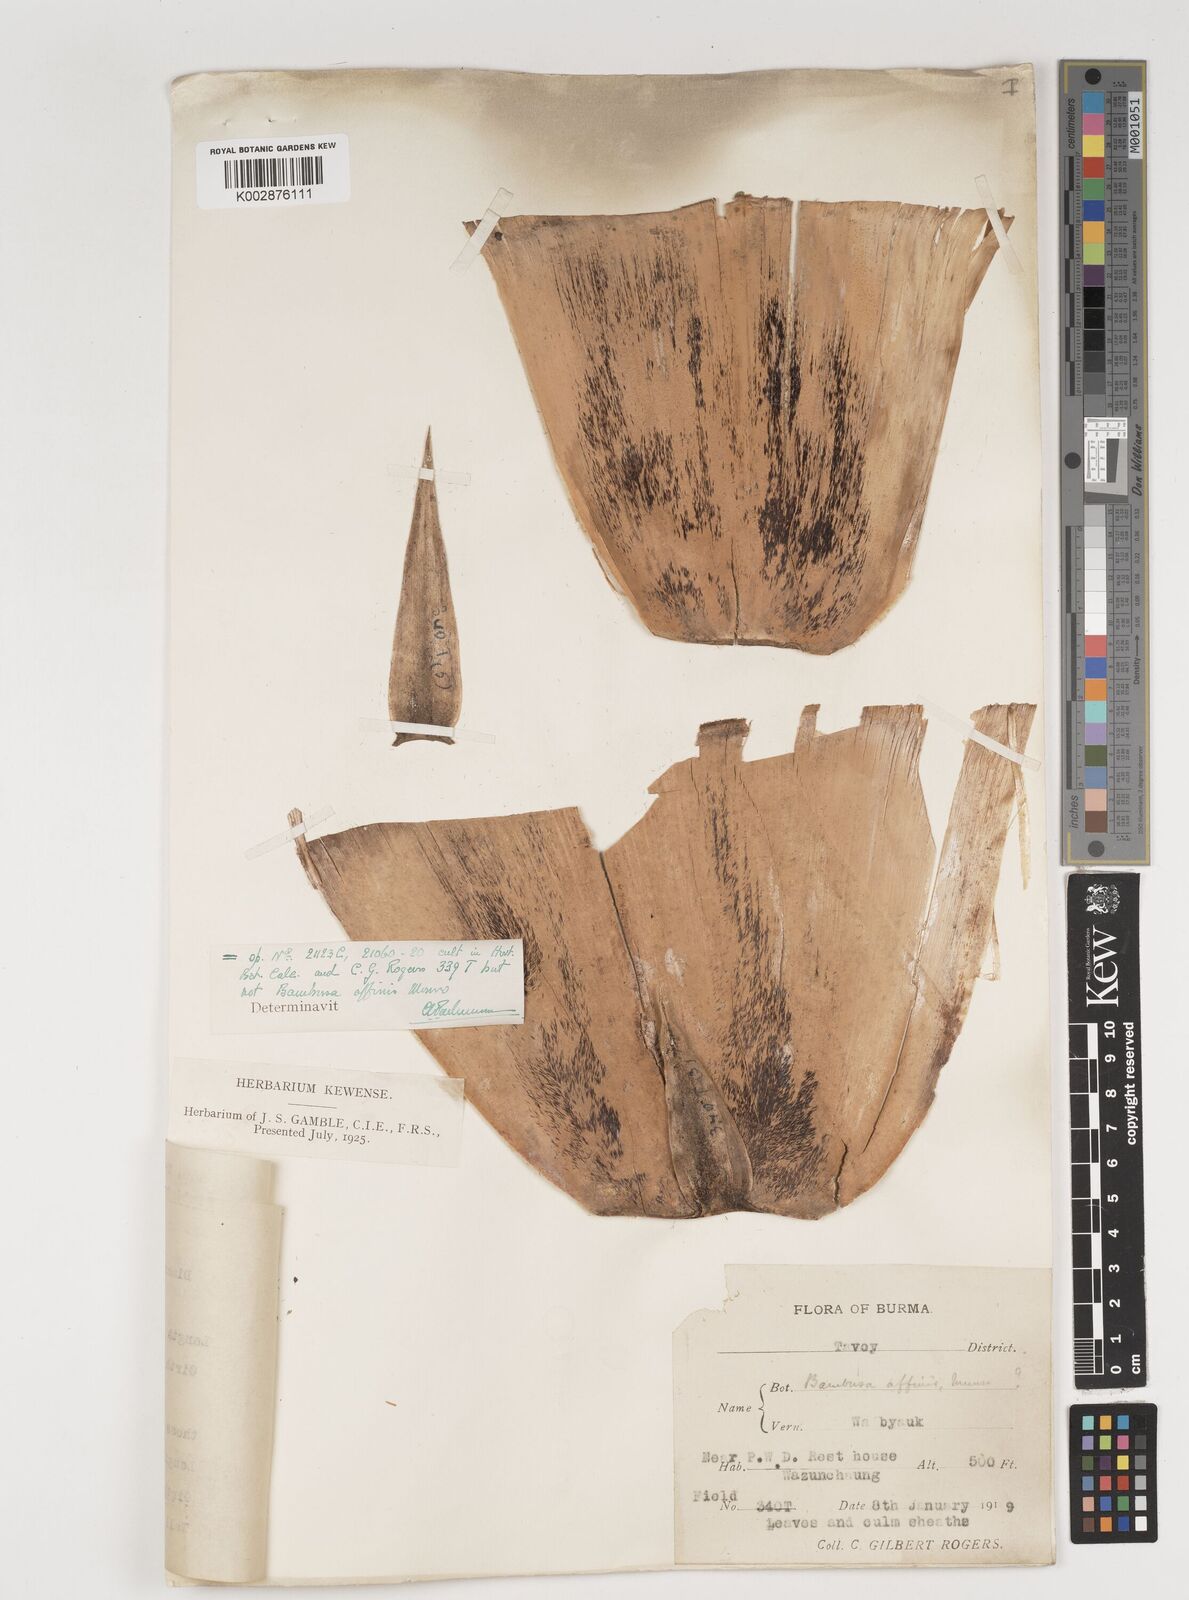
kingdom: Plantae
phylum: Tracheophyta
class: Liliopsida
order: Poales
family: Poaceae
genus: Bambusa
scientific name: Bambusa affinis
